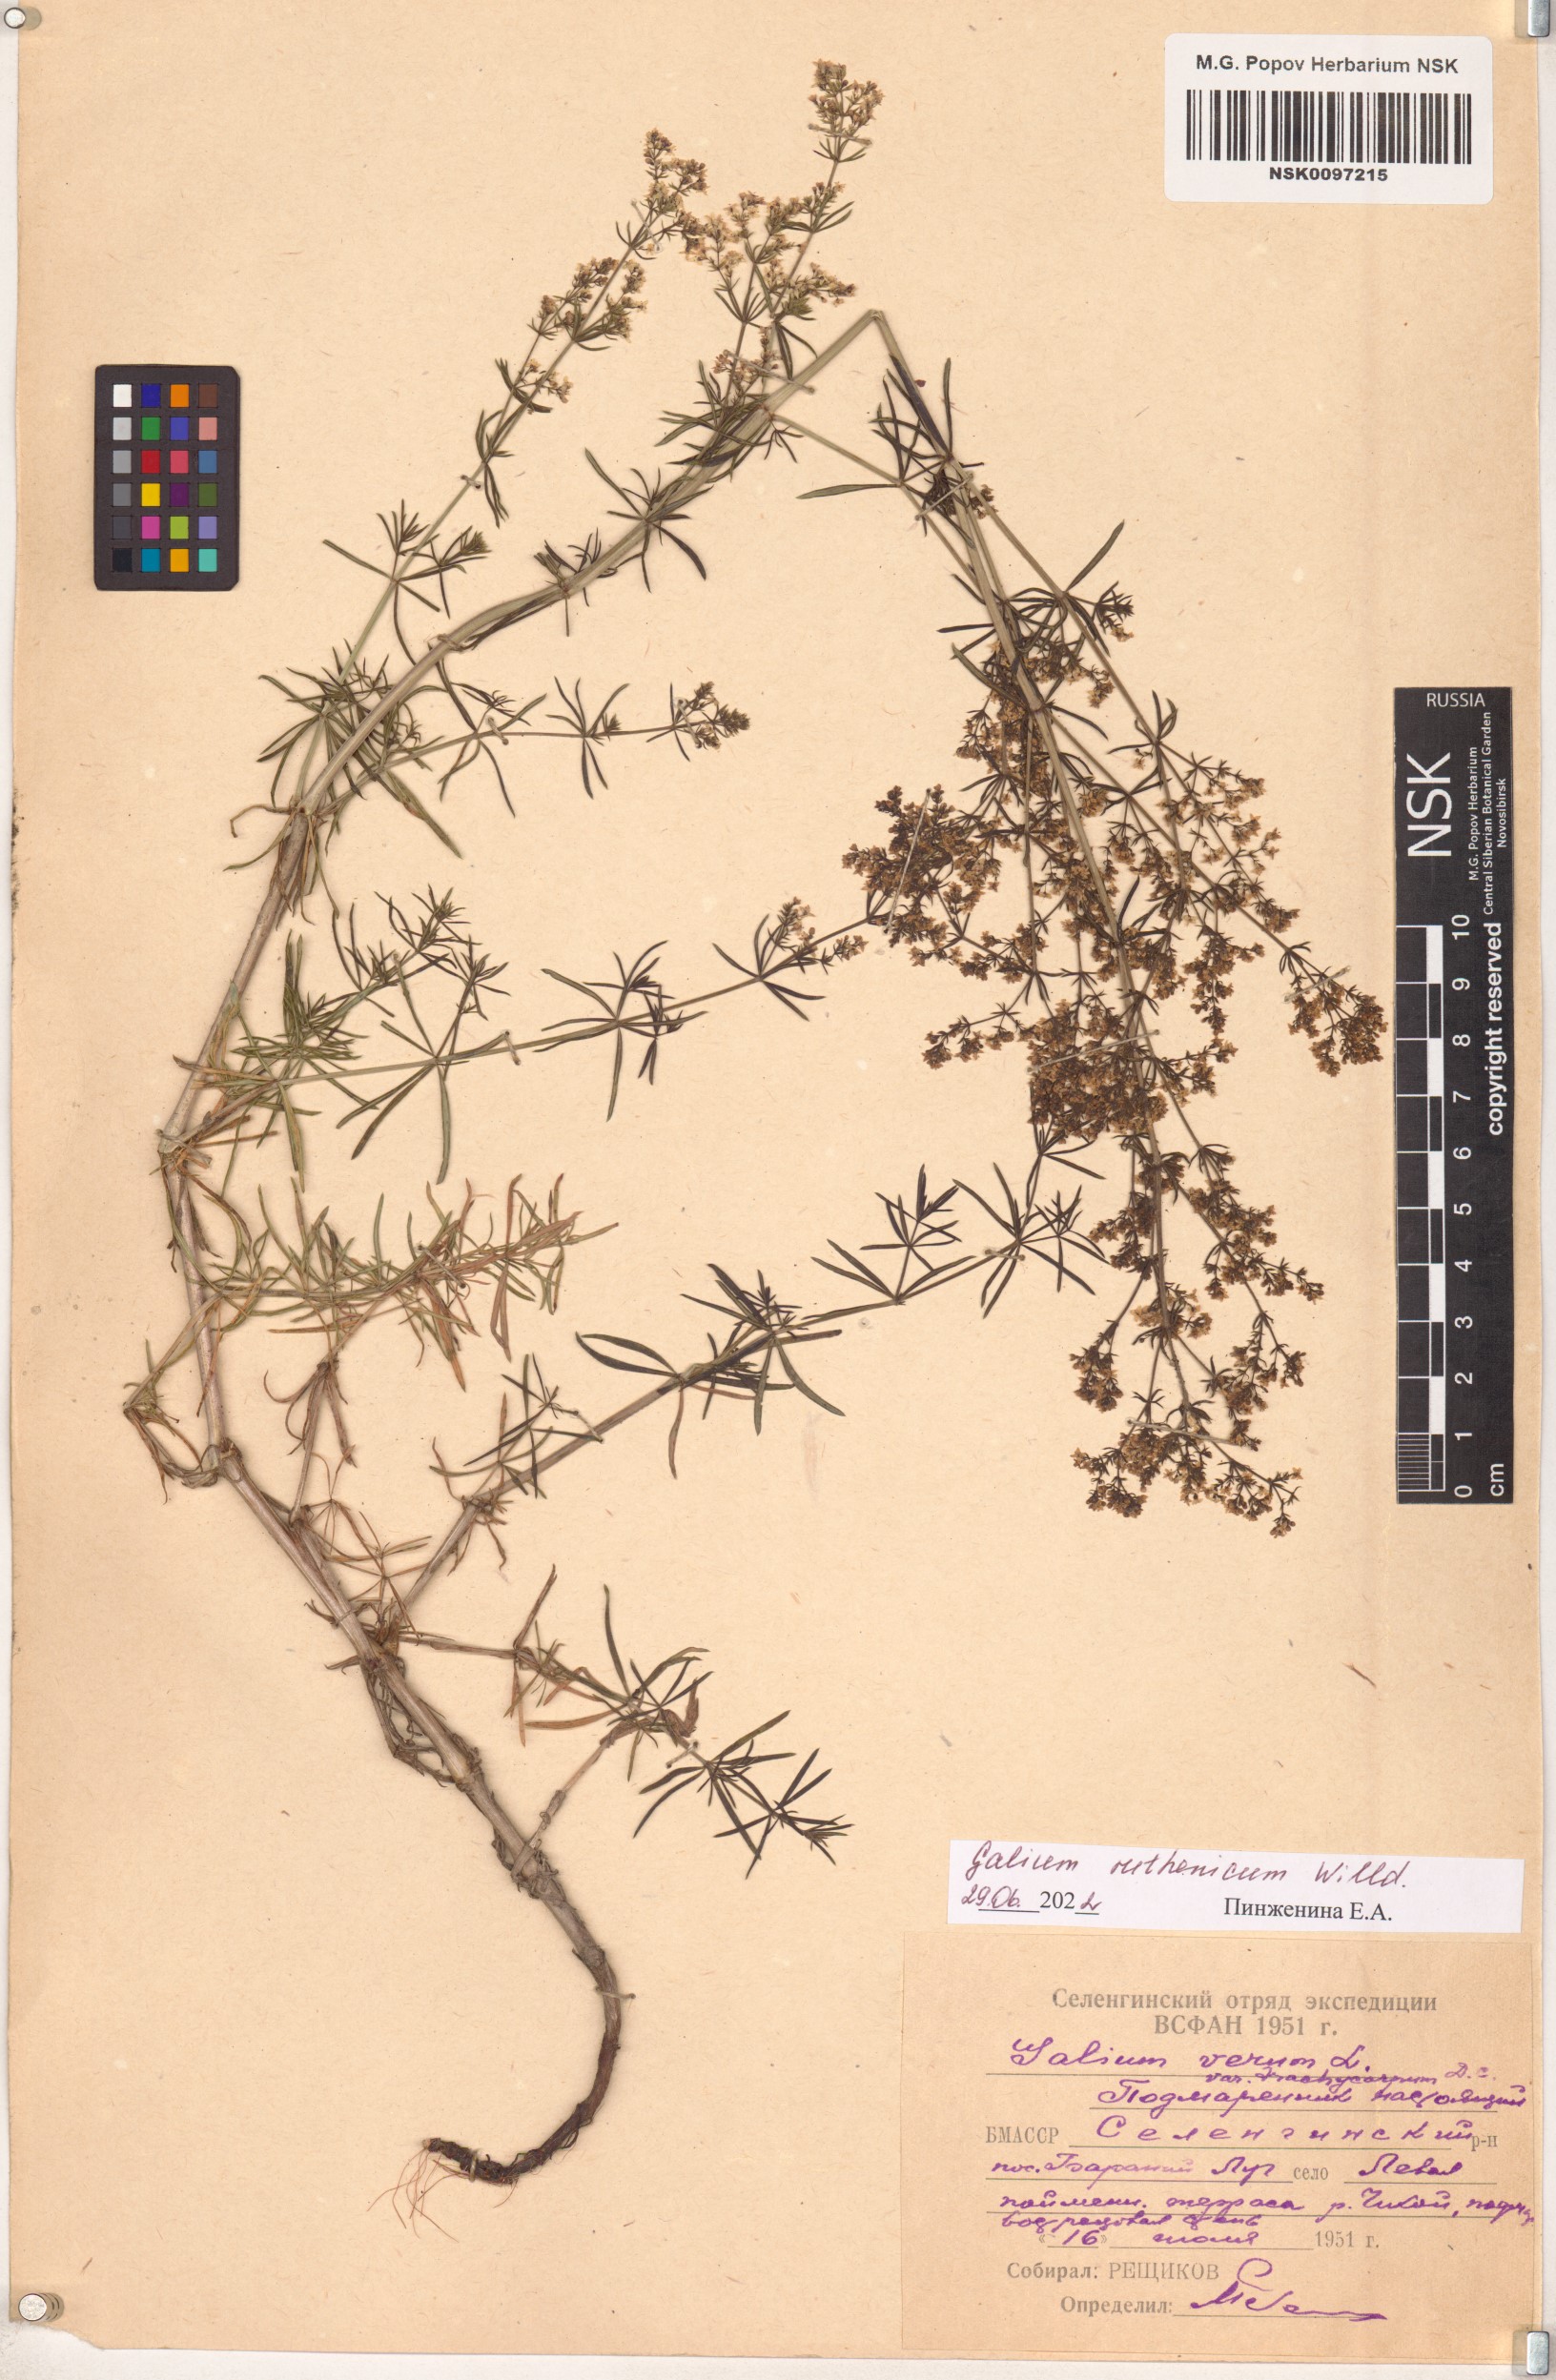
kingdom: Plantae
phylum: Tracheophyta
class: Magnoliopsida
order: Gentianales
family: Rubiaceae
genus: Galium
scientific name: Galium verum
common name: Lady's bedstraw
